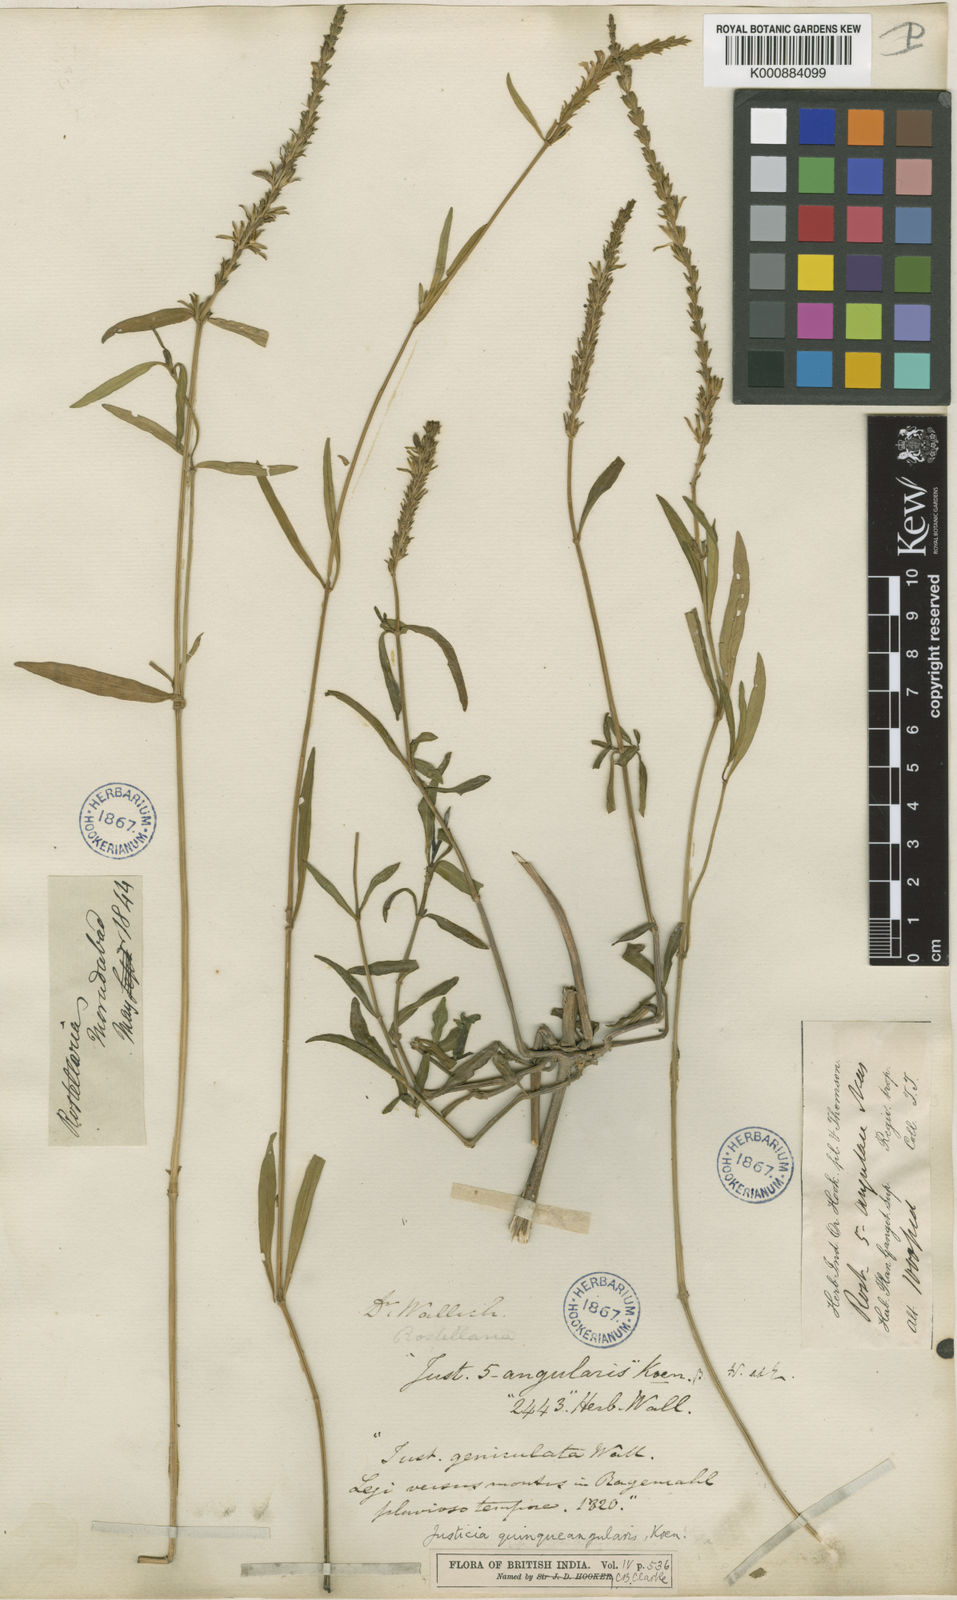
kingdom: Plantae
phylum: Tracheophyta
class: Magnoliopsida
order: Lamiales
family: Acanthaceae
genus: Rostellularia
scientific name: Rostellularia quinquangularis
